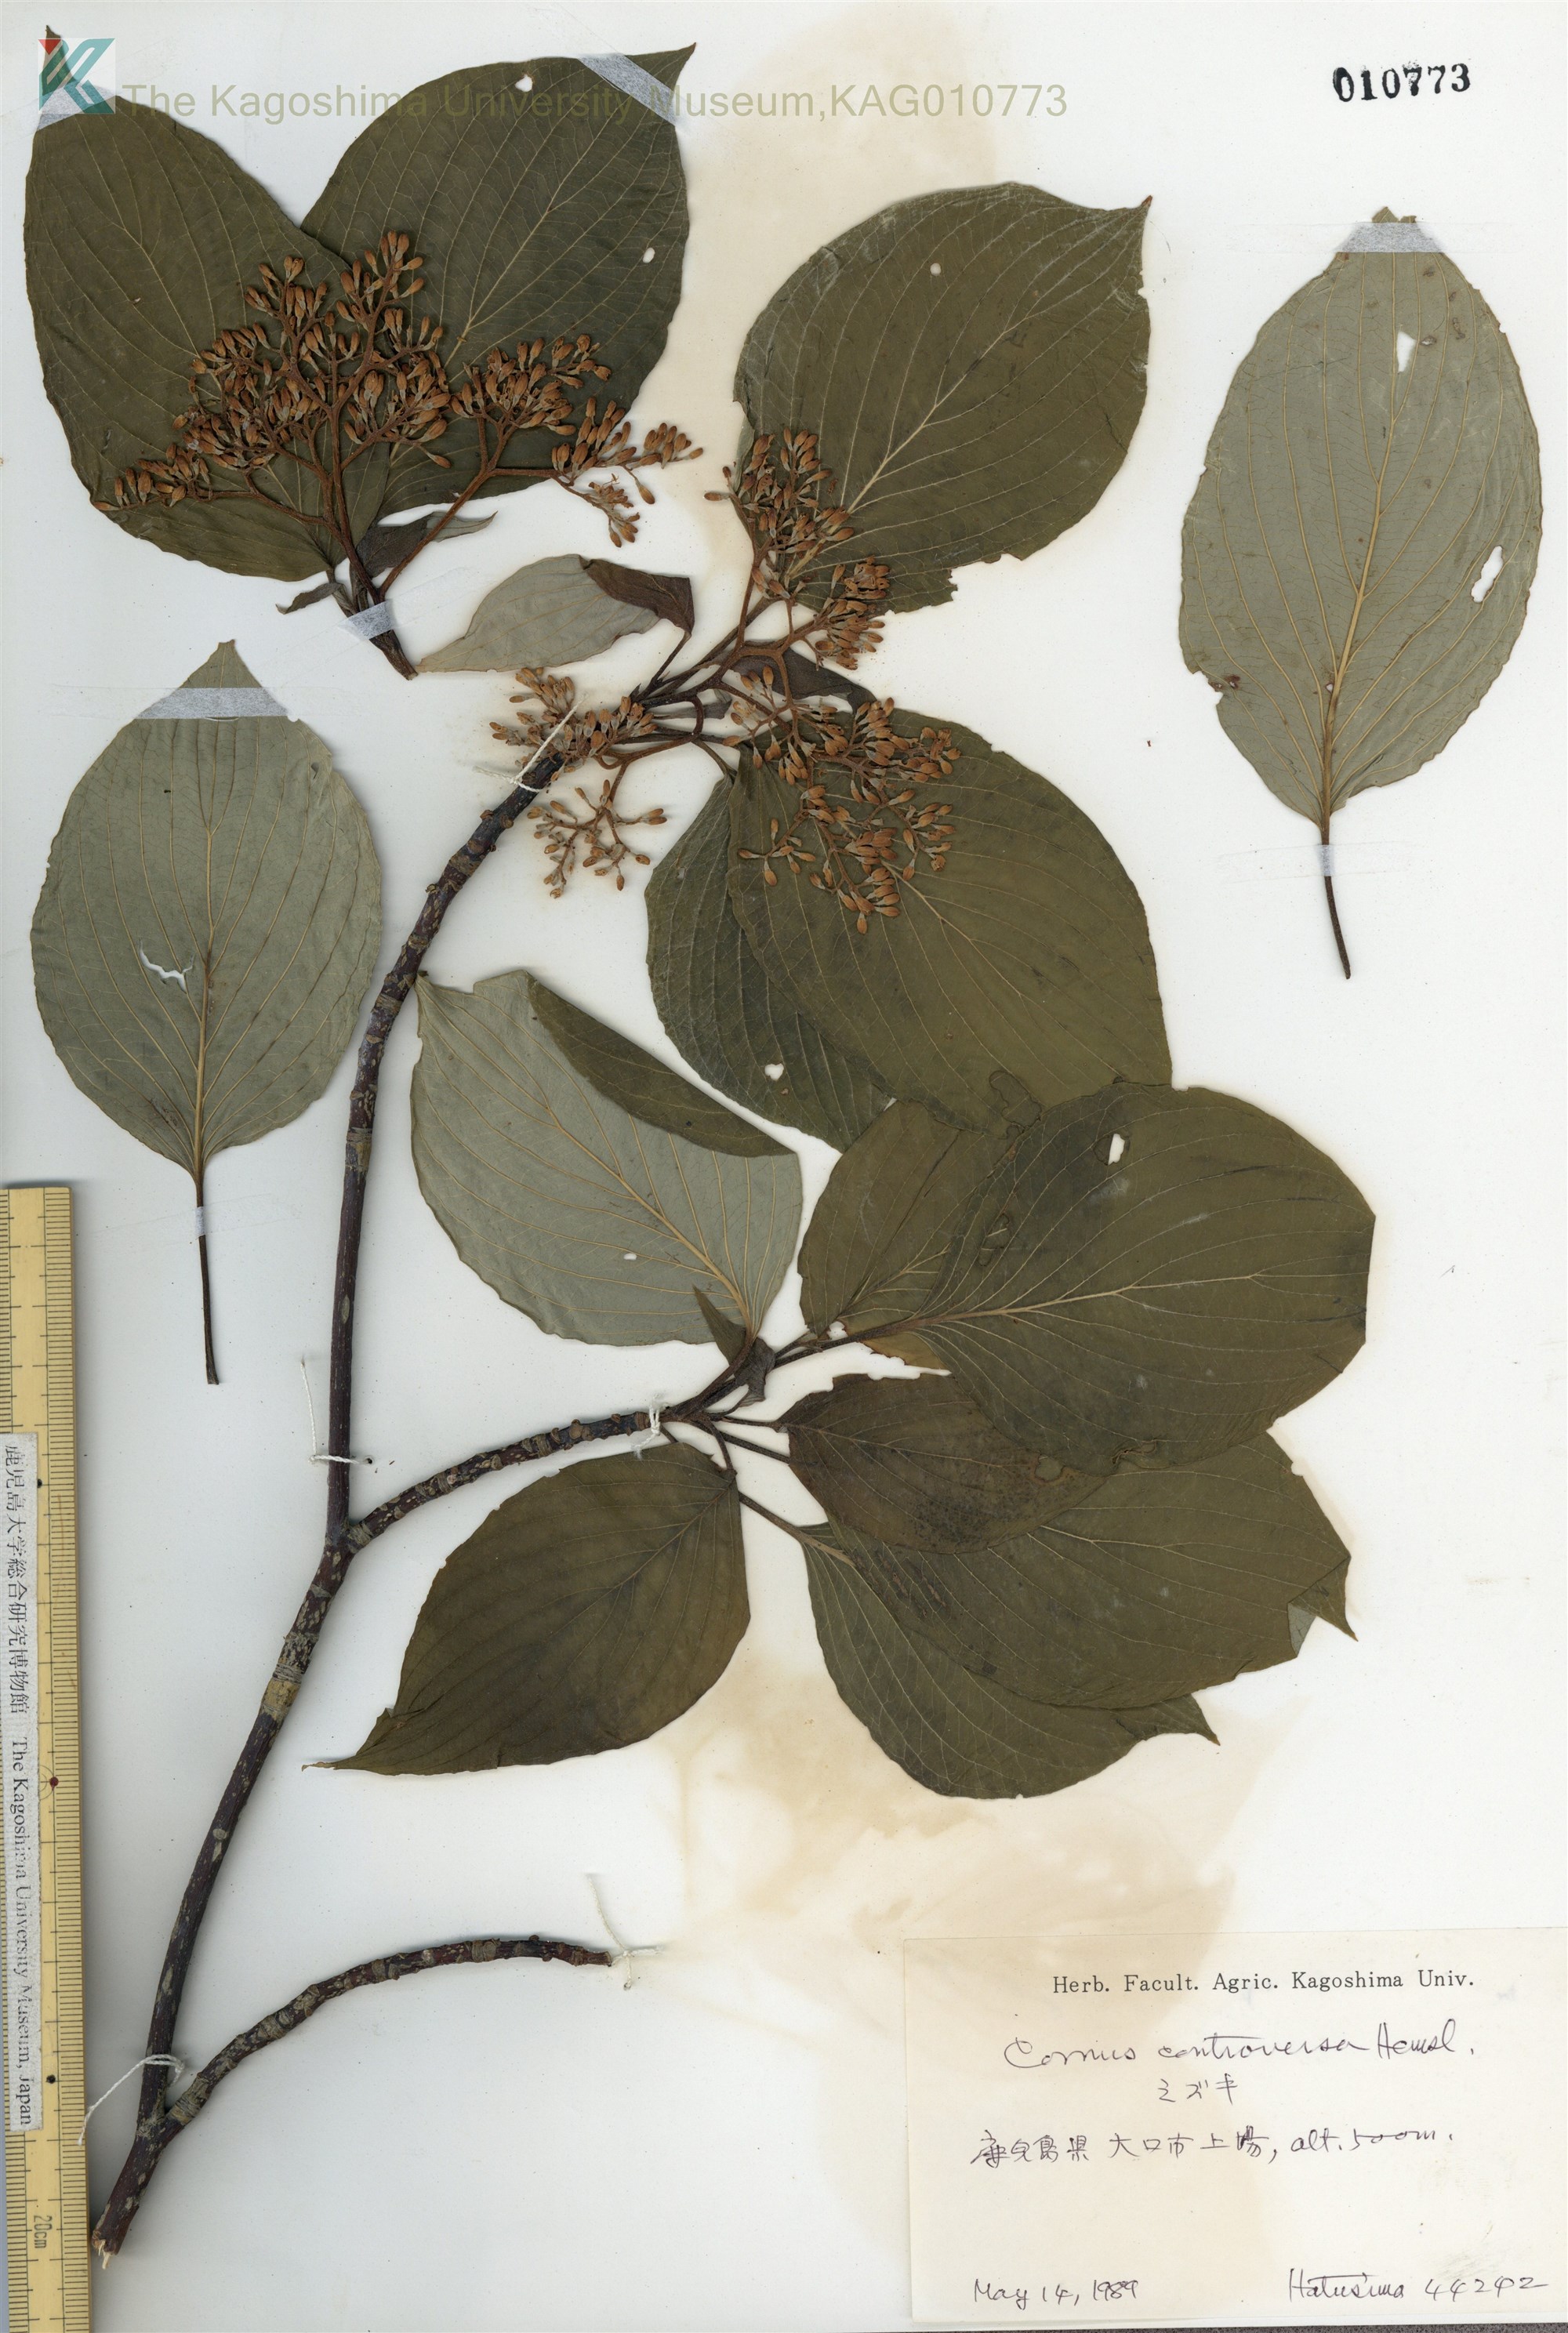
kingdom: Plantae
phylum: Tracheophyta
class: Magnoliopsida
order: Cornales
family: Cornaceae
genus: Cornus
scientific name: Cornus controversa
